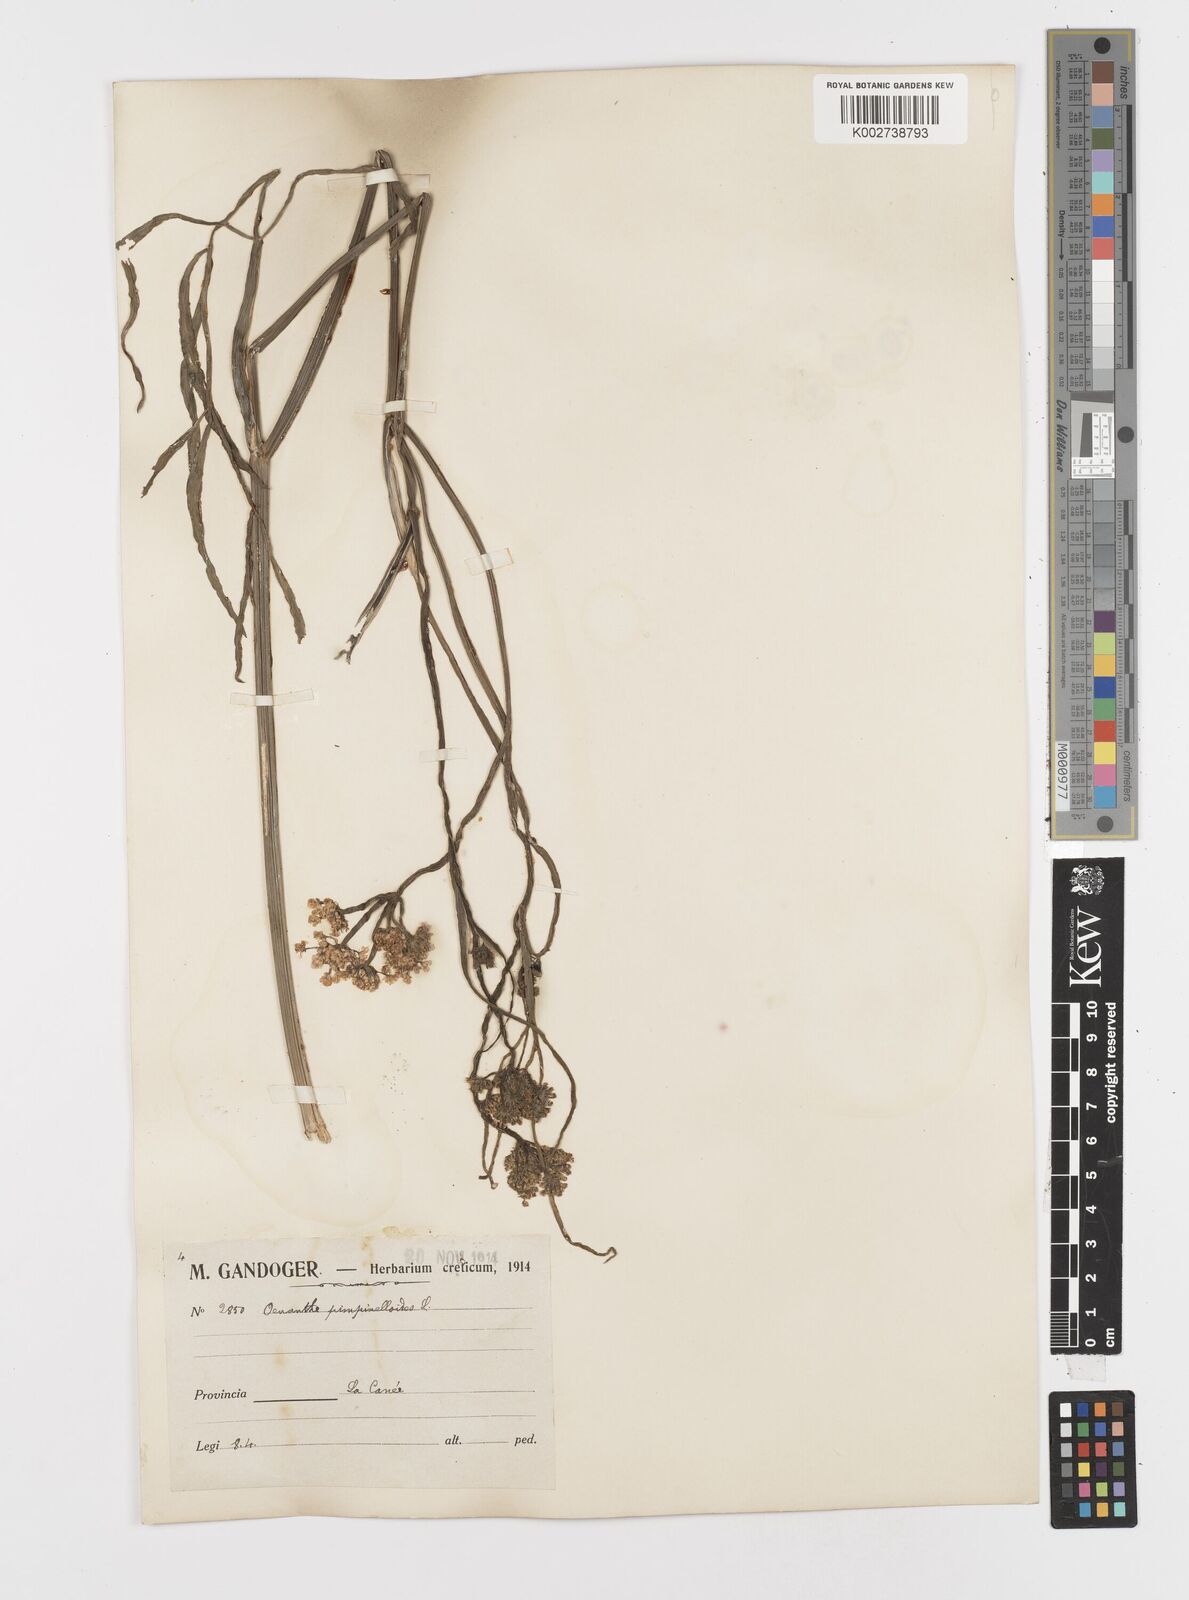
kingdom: Plantae
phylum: Tracheophyta
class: Magnoliopsida
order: Apiales
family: Apiaceae
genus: Oenanthe
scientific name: Oenanthe pimpinelloides
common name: Corky-fruited water-dropwort
